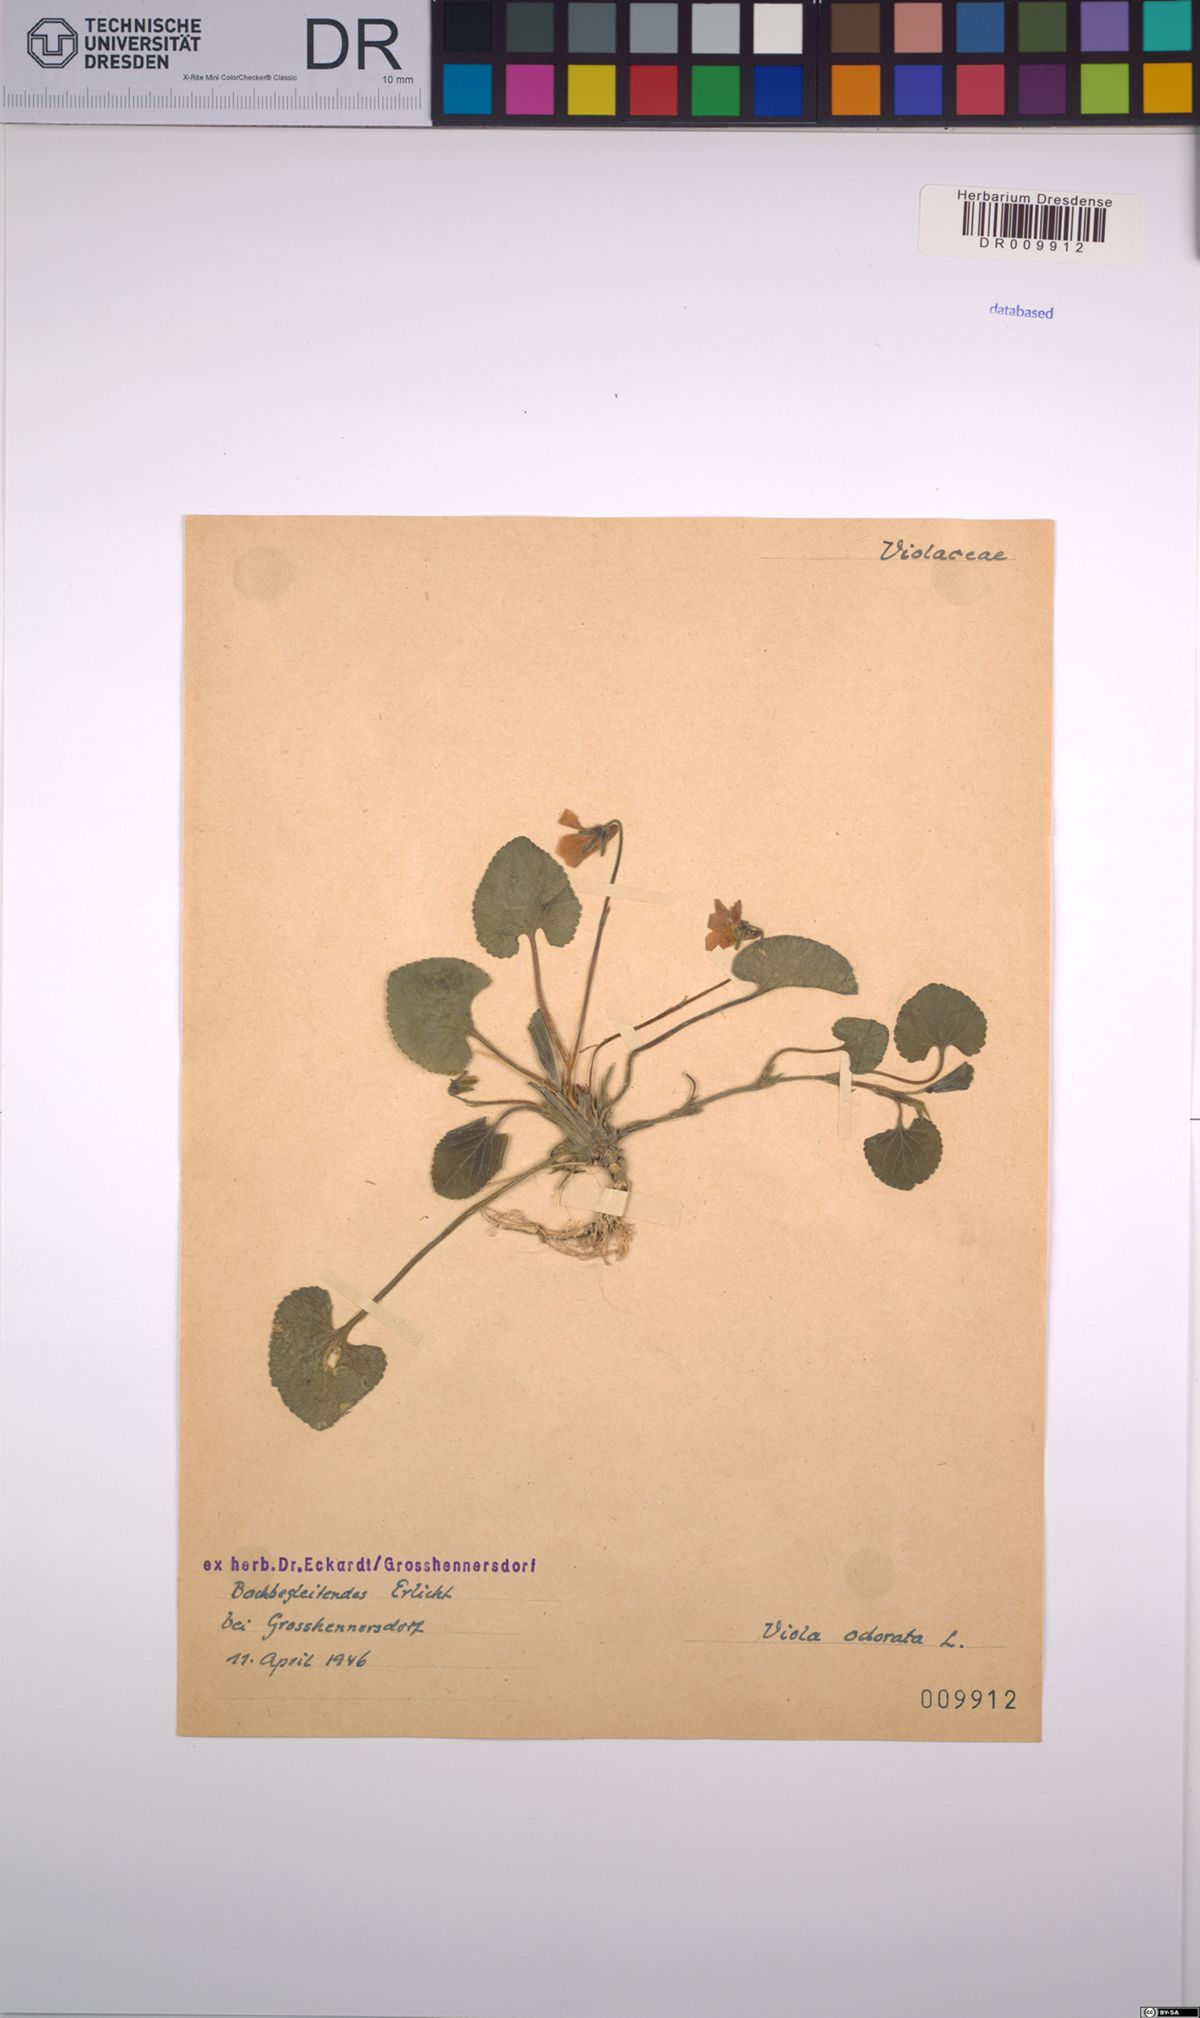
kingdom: Plantae
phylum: Tracheophyta
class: Magnoliopsida
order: Malpighiales
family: Violaceae
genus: Viola
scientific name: Viola odorata
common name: Sweet violet
